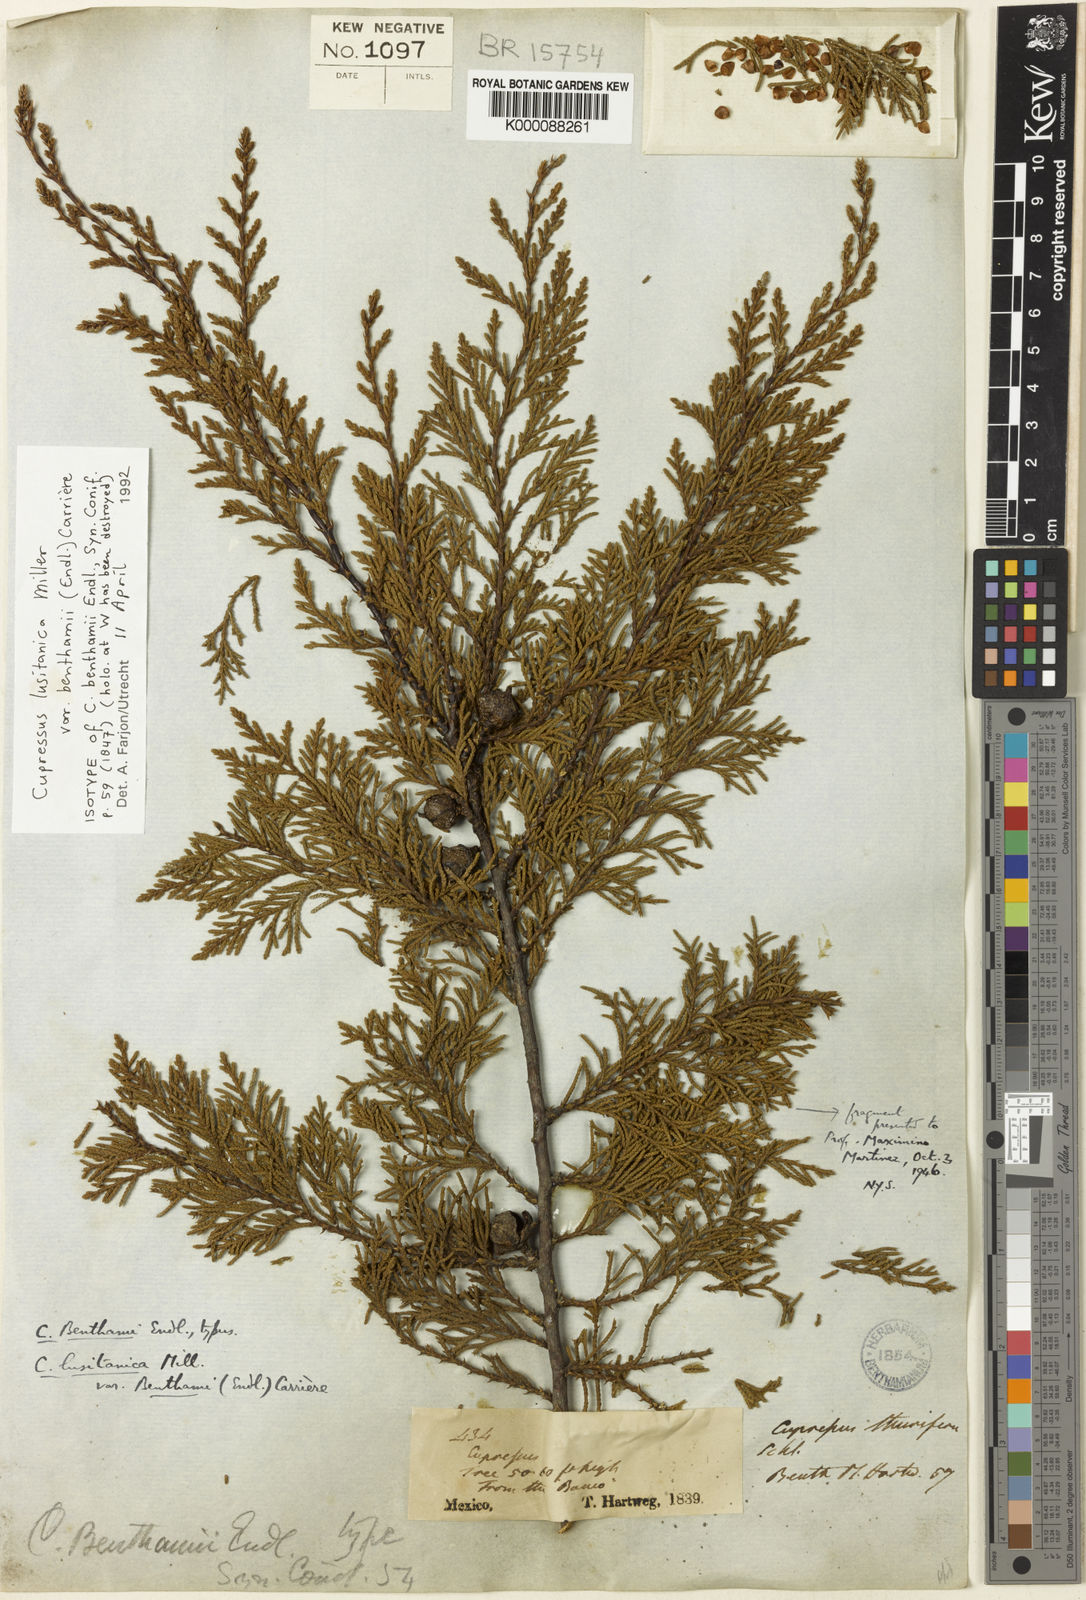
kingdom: Plantae
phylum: Tracheophyta
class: Pinopsida
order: Pinales
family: Cupressaceae
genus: Cupressus
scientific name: Cupressus lusitanica
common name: Mexican cypress
